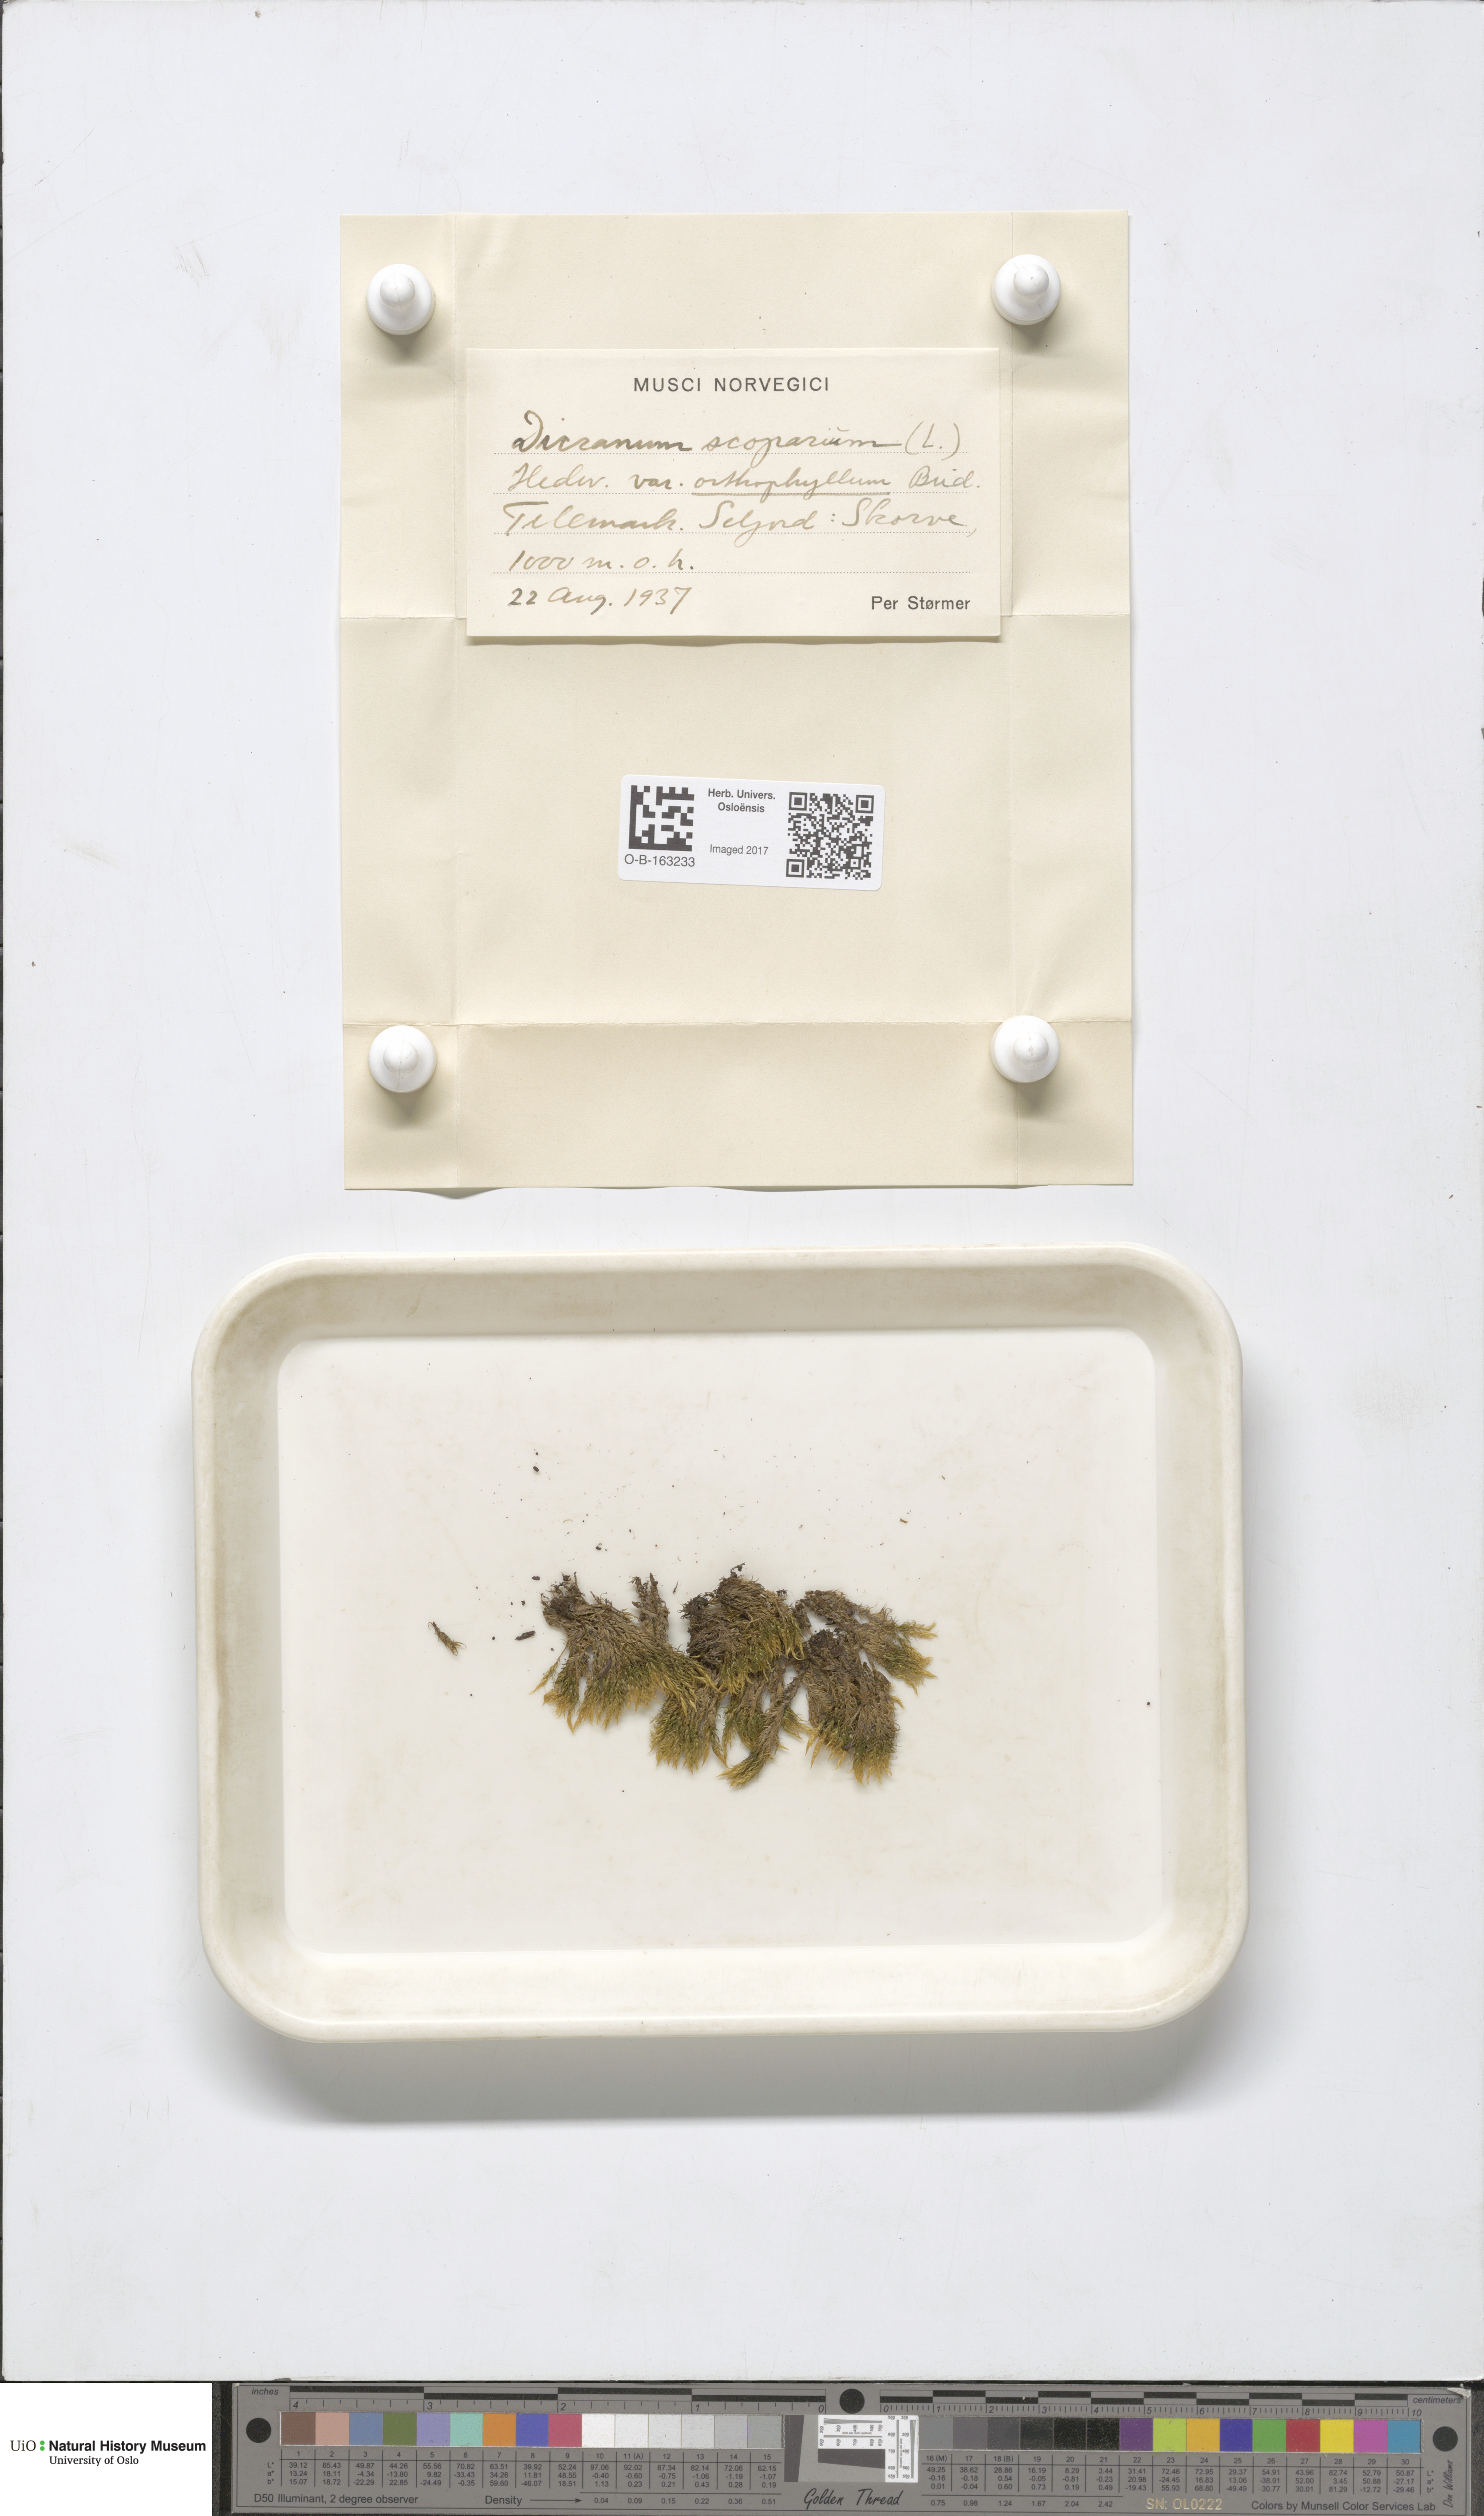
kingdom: Plantae
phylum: Bryophyta
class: Bryopsida
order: Dicranales
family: Dicranaceae
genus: Dicranum
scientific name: Dicranum scoparium
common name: Broom fork-moss
